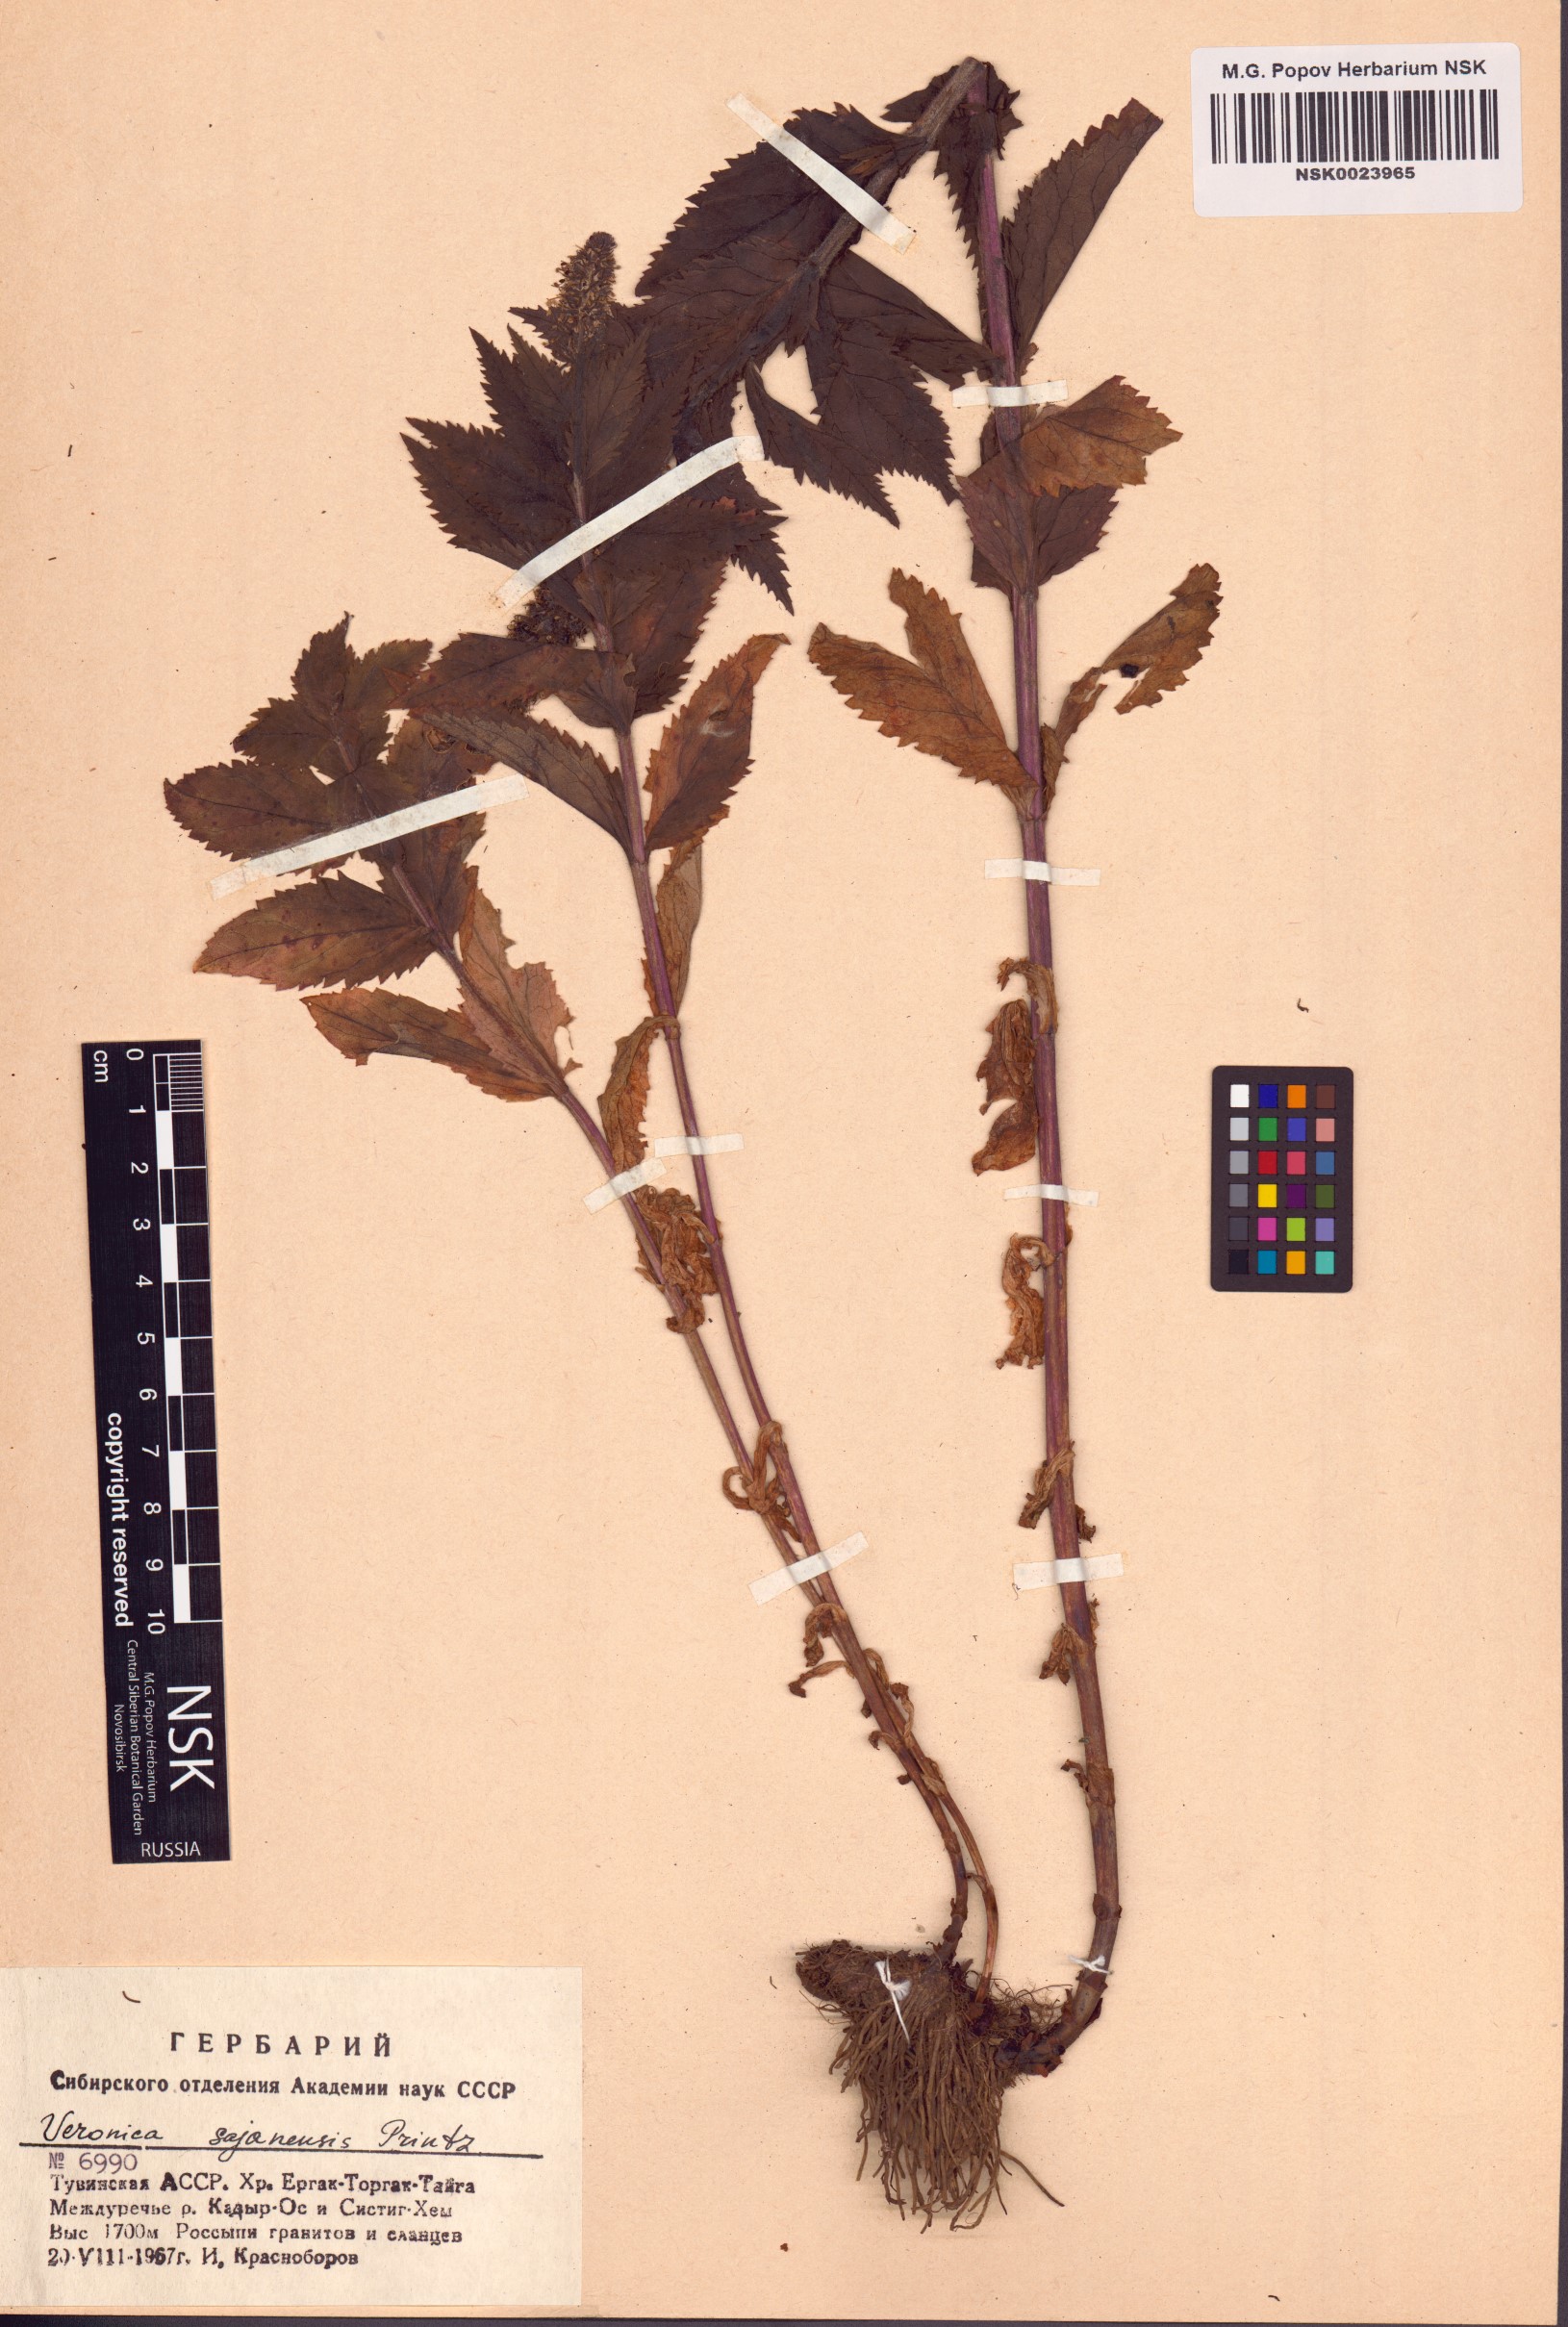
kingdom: Plantae
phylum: Tracheophyta
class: Magnoliopsida
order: Lamiales
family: Plantaginaceae
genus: Veronica
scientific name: Veronica sajanensis
